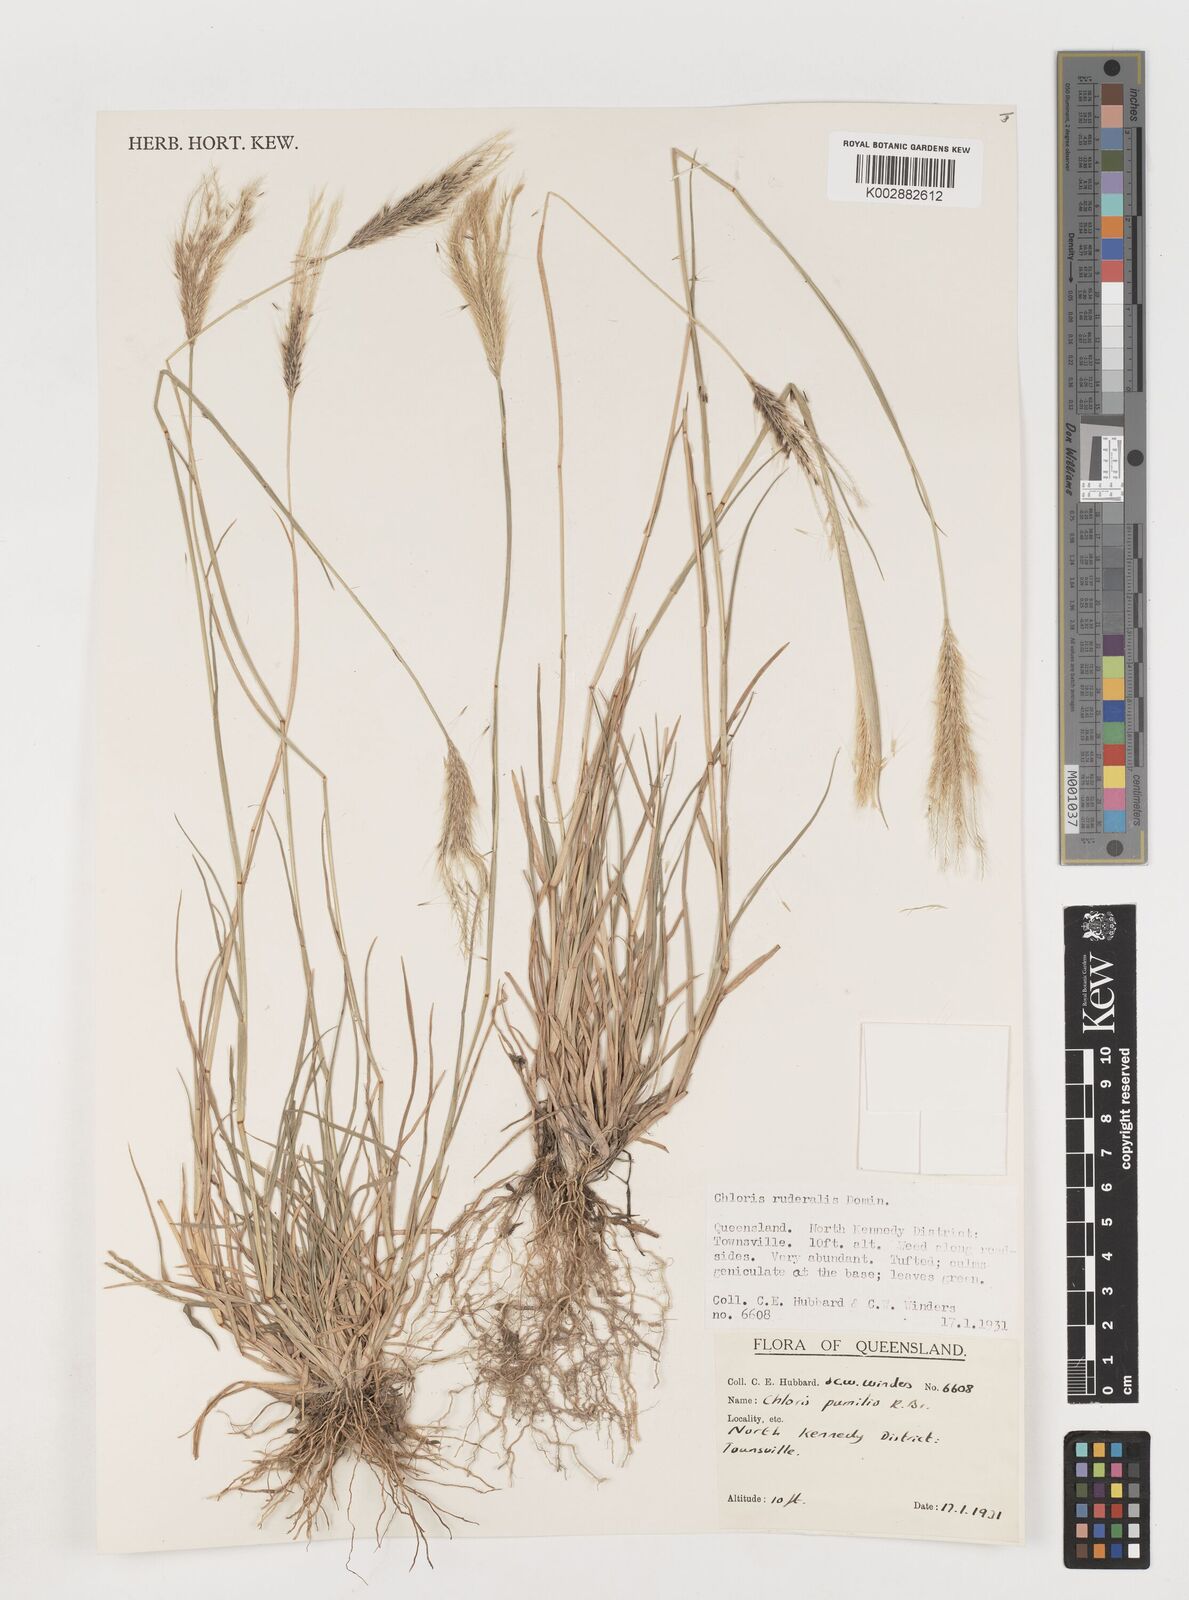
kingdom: Plantae
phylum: Tracheophyta
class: Liliopsida
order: Poales
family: Poaceae
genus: Chloris
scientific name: Chloris pumilio
